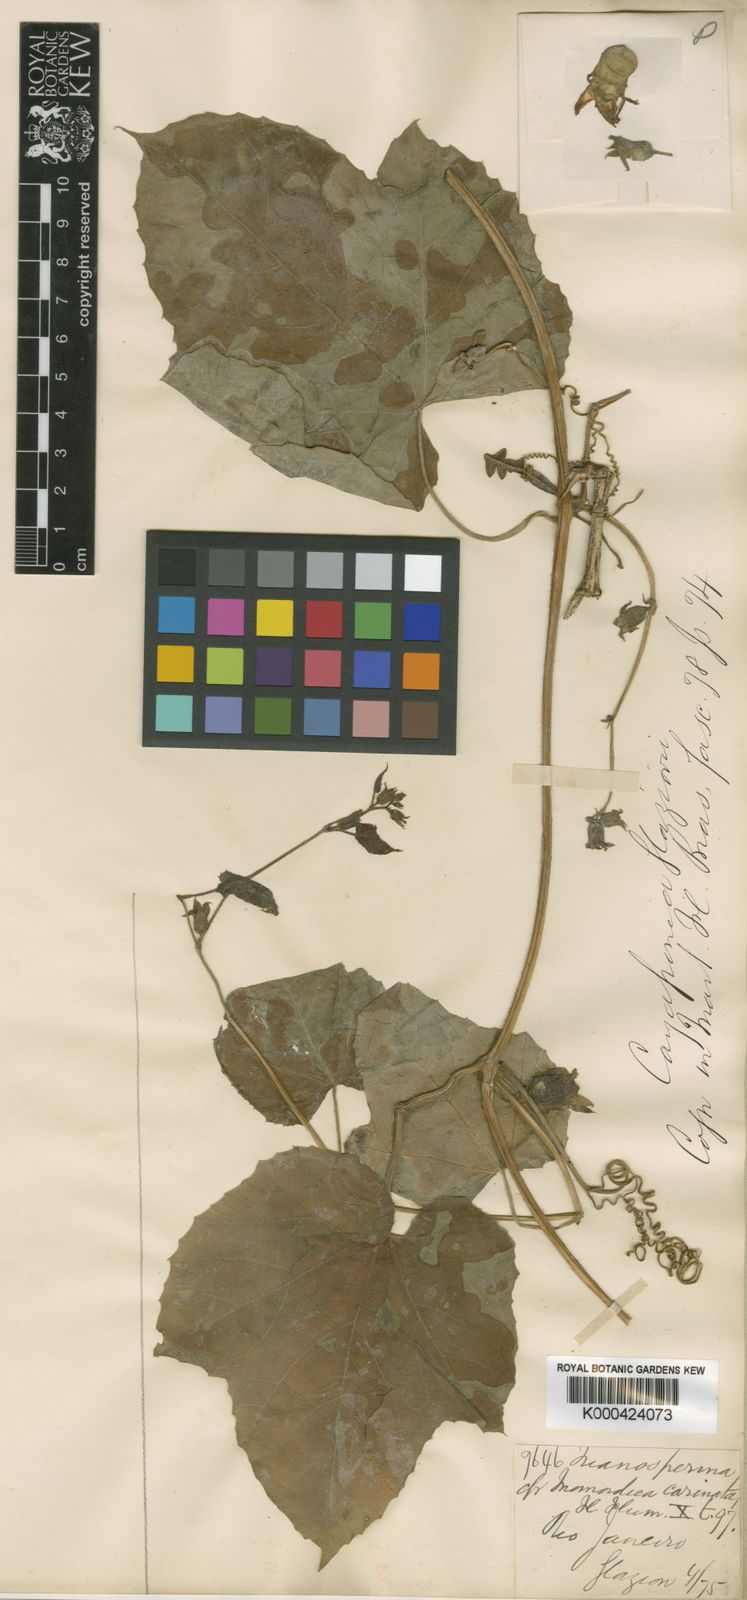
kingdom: Plantae
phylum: Tracheophyta
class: Magnoliopsida
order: Cucurbitales
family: Cucurbitaceae
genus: Cayaponia
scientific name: Cayaponia cabocla
